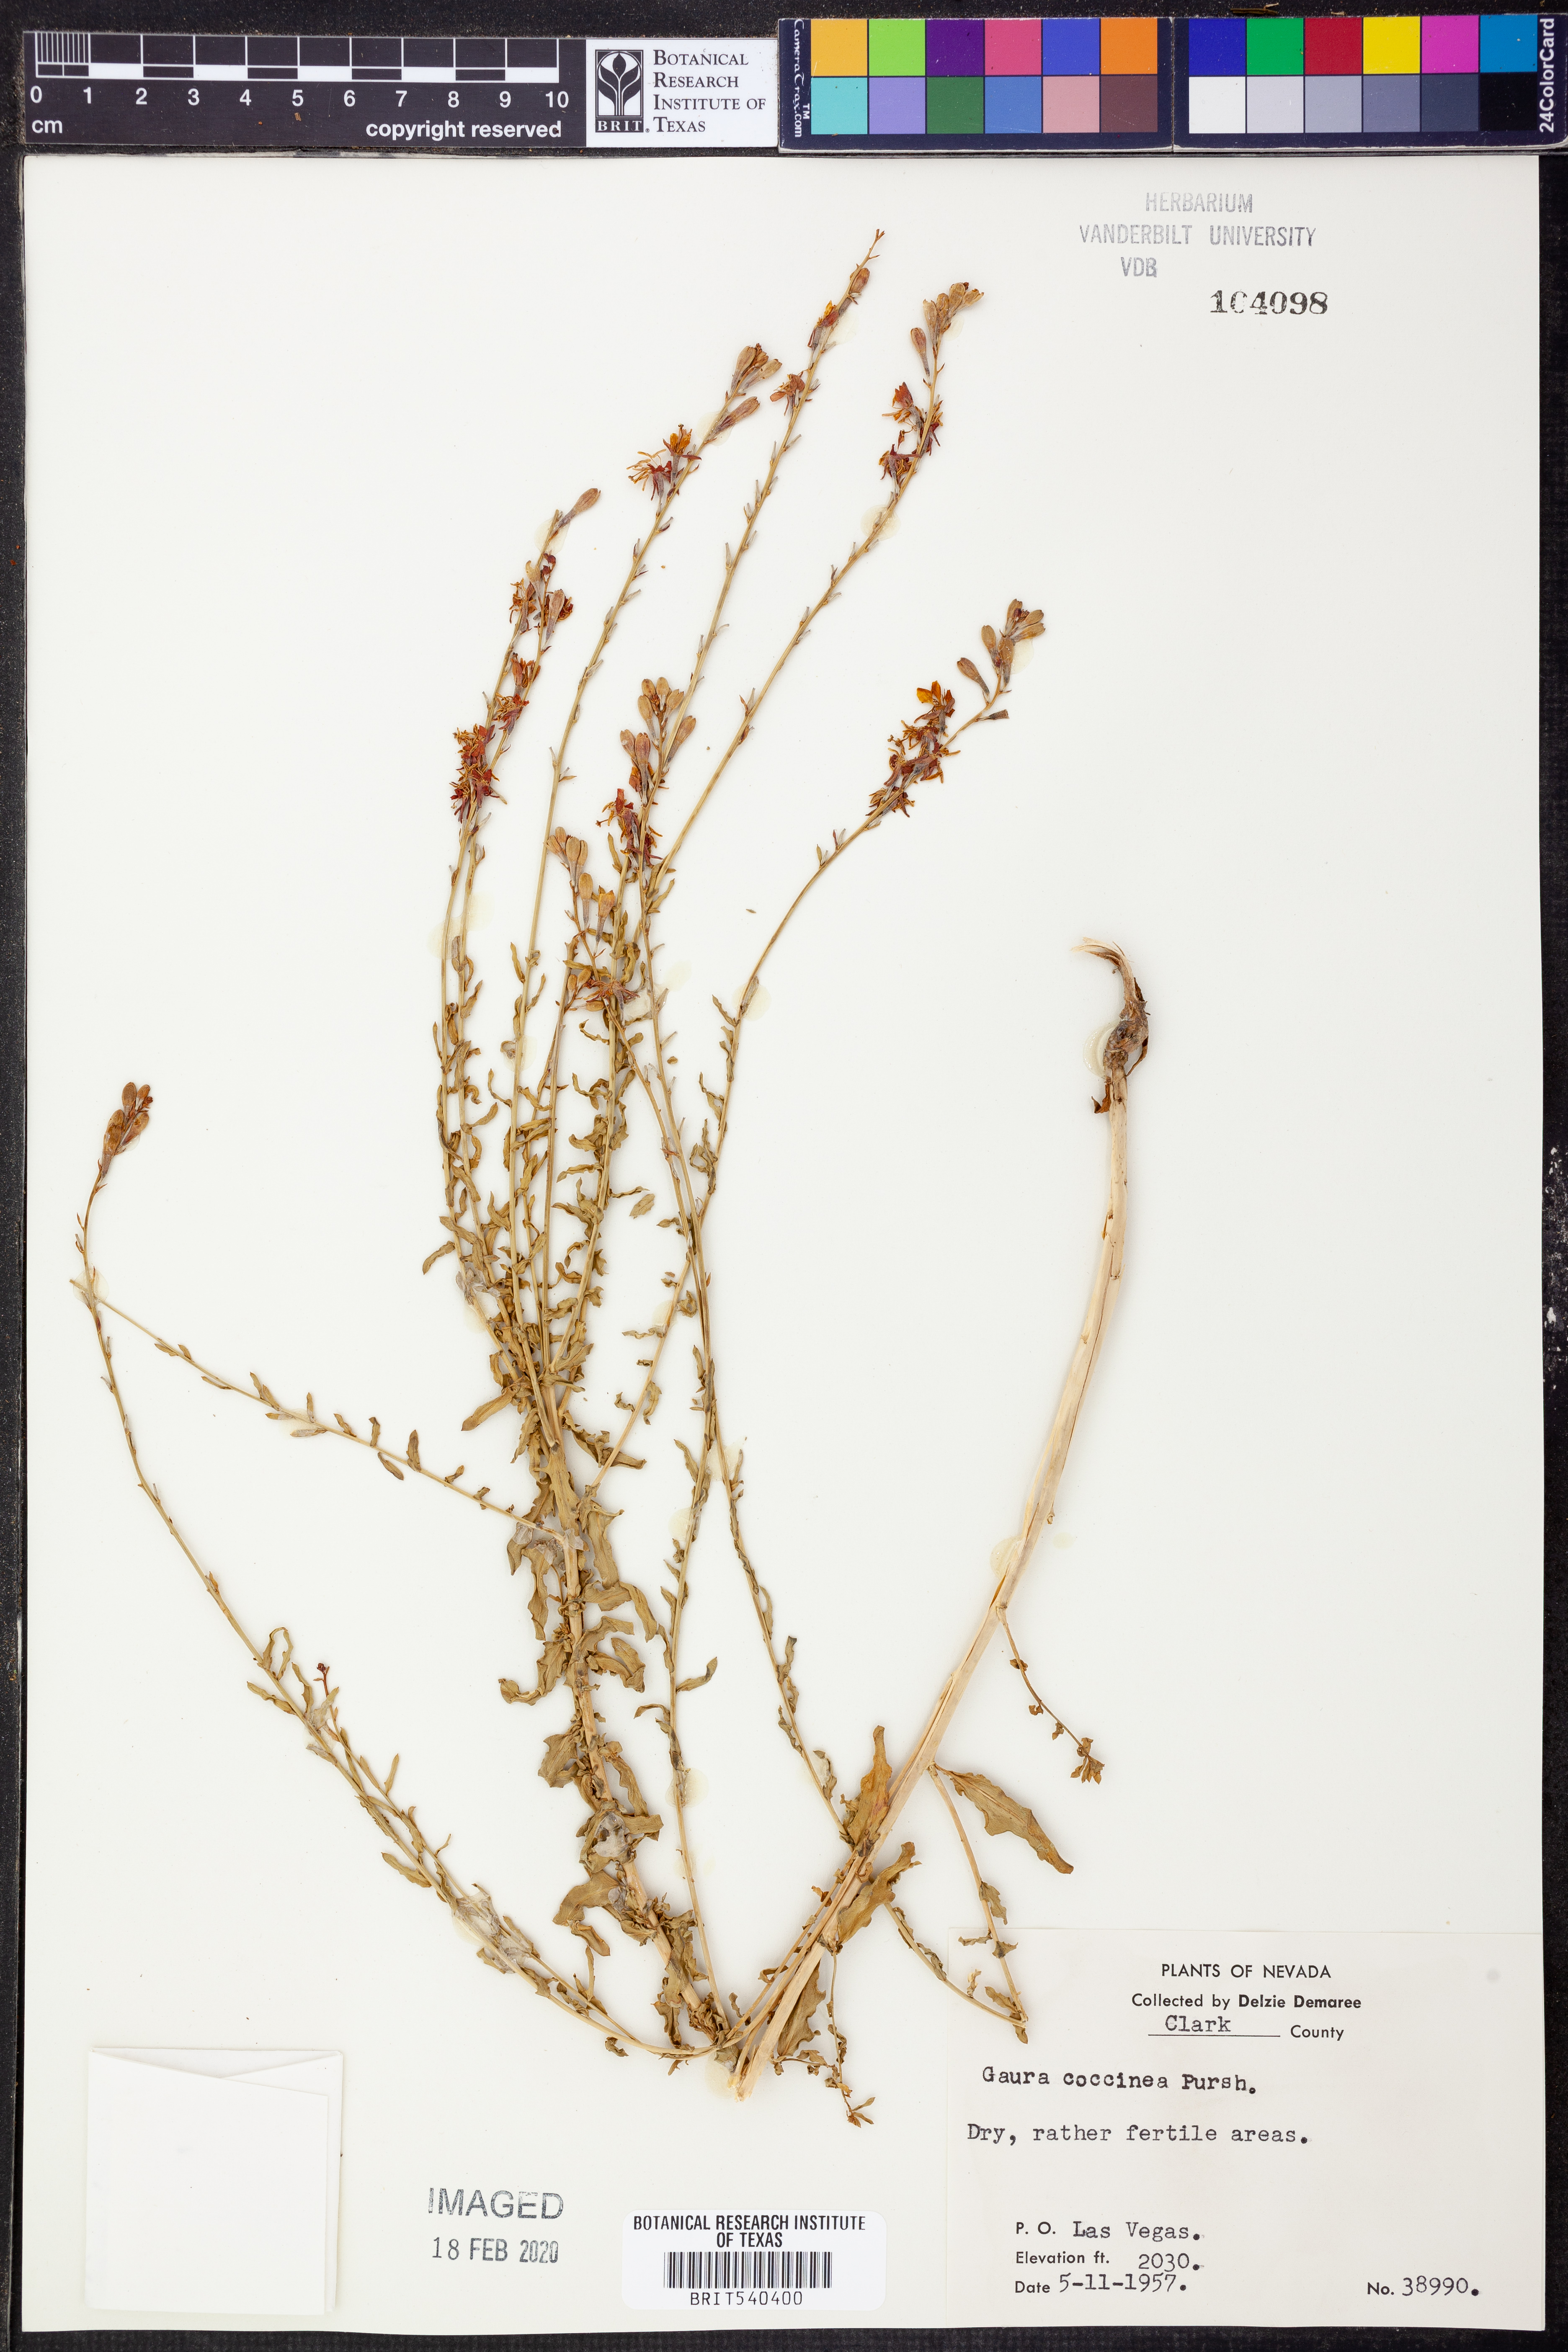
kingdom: Plantae
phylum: Tracheophyta
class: Magnoliopsida
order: Myrtales
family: Onagraceae
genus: Oenothera
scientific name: Oenothera suffrutescens
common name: Scarlet beeblossom
